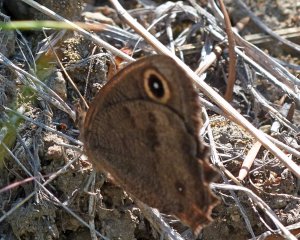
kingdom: Animalia
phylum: Arthropoda
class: Insecta
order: Lepidoptera
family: Nymphalidae
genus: Cercyonis
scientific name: Cercyonis pegala
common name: Common Wood-Nymph
